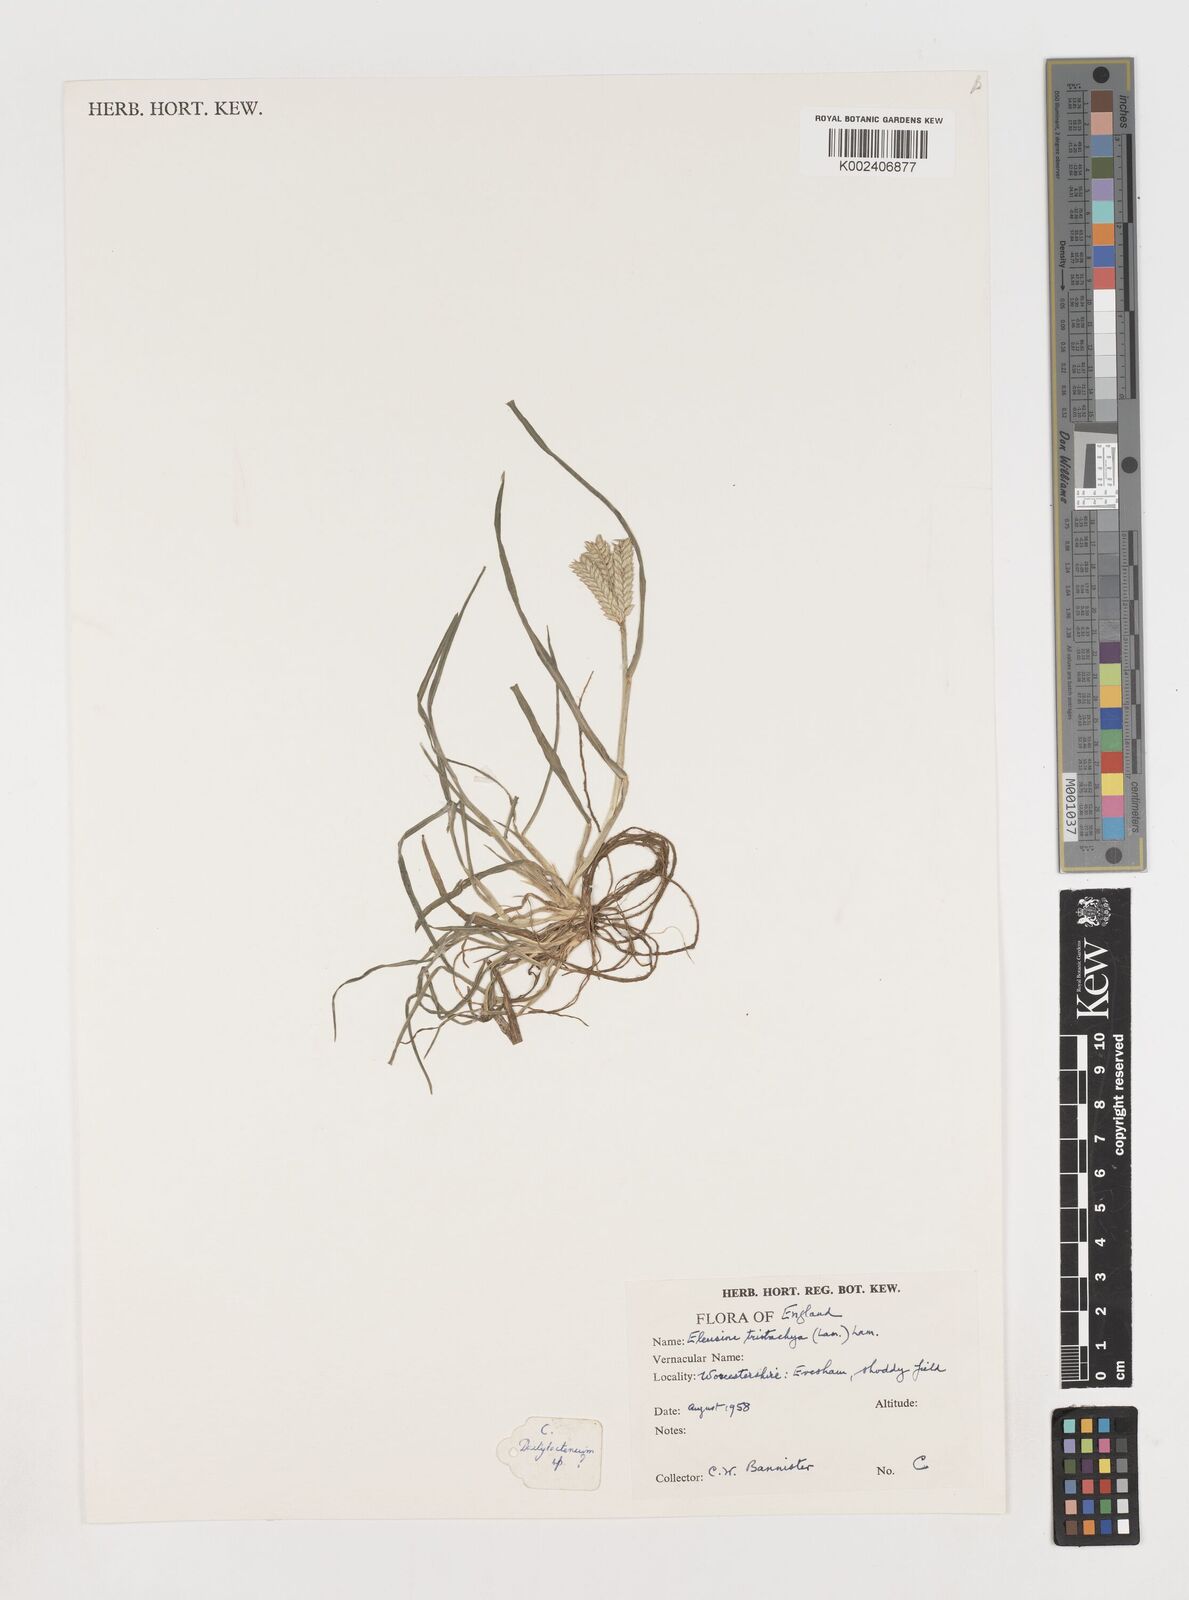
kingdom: Plantae
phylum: Tracheophyta
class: Liliopsida
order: Poales
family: Poaceae
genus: Eleusine
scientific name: Eleusine tristachya
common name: American yard-grass
